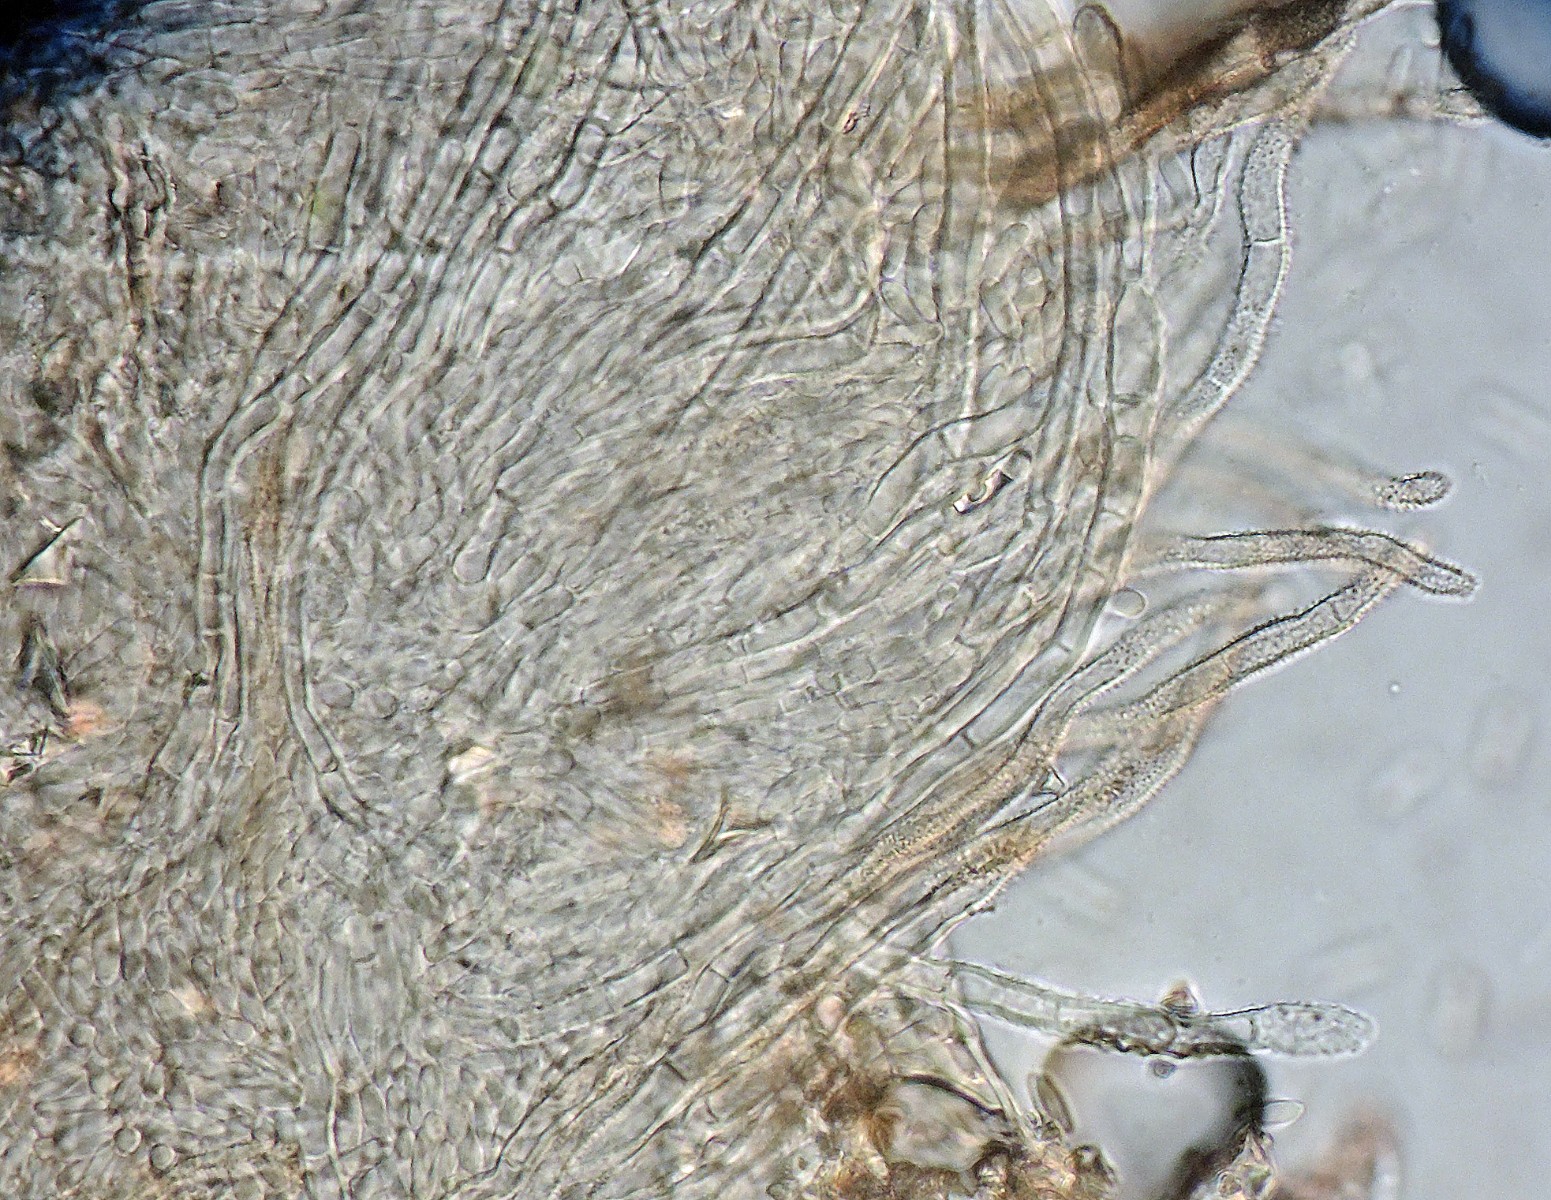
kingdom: Fungi
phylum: Ascomycota
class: Sordariomycetes
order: Hypocreales
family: Nectriaceae
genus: Sarcopodium
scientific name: Sarcopodium circinatum
